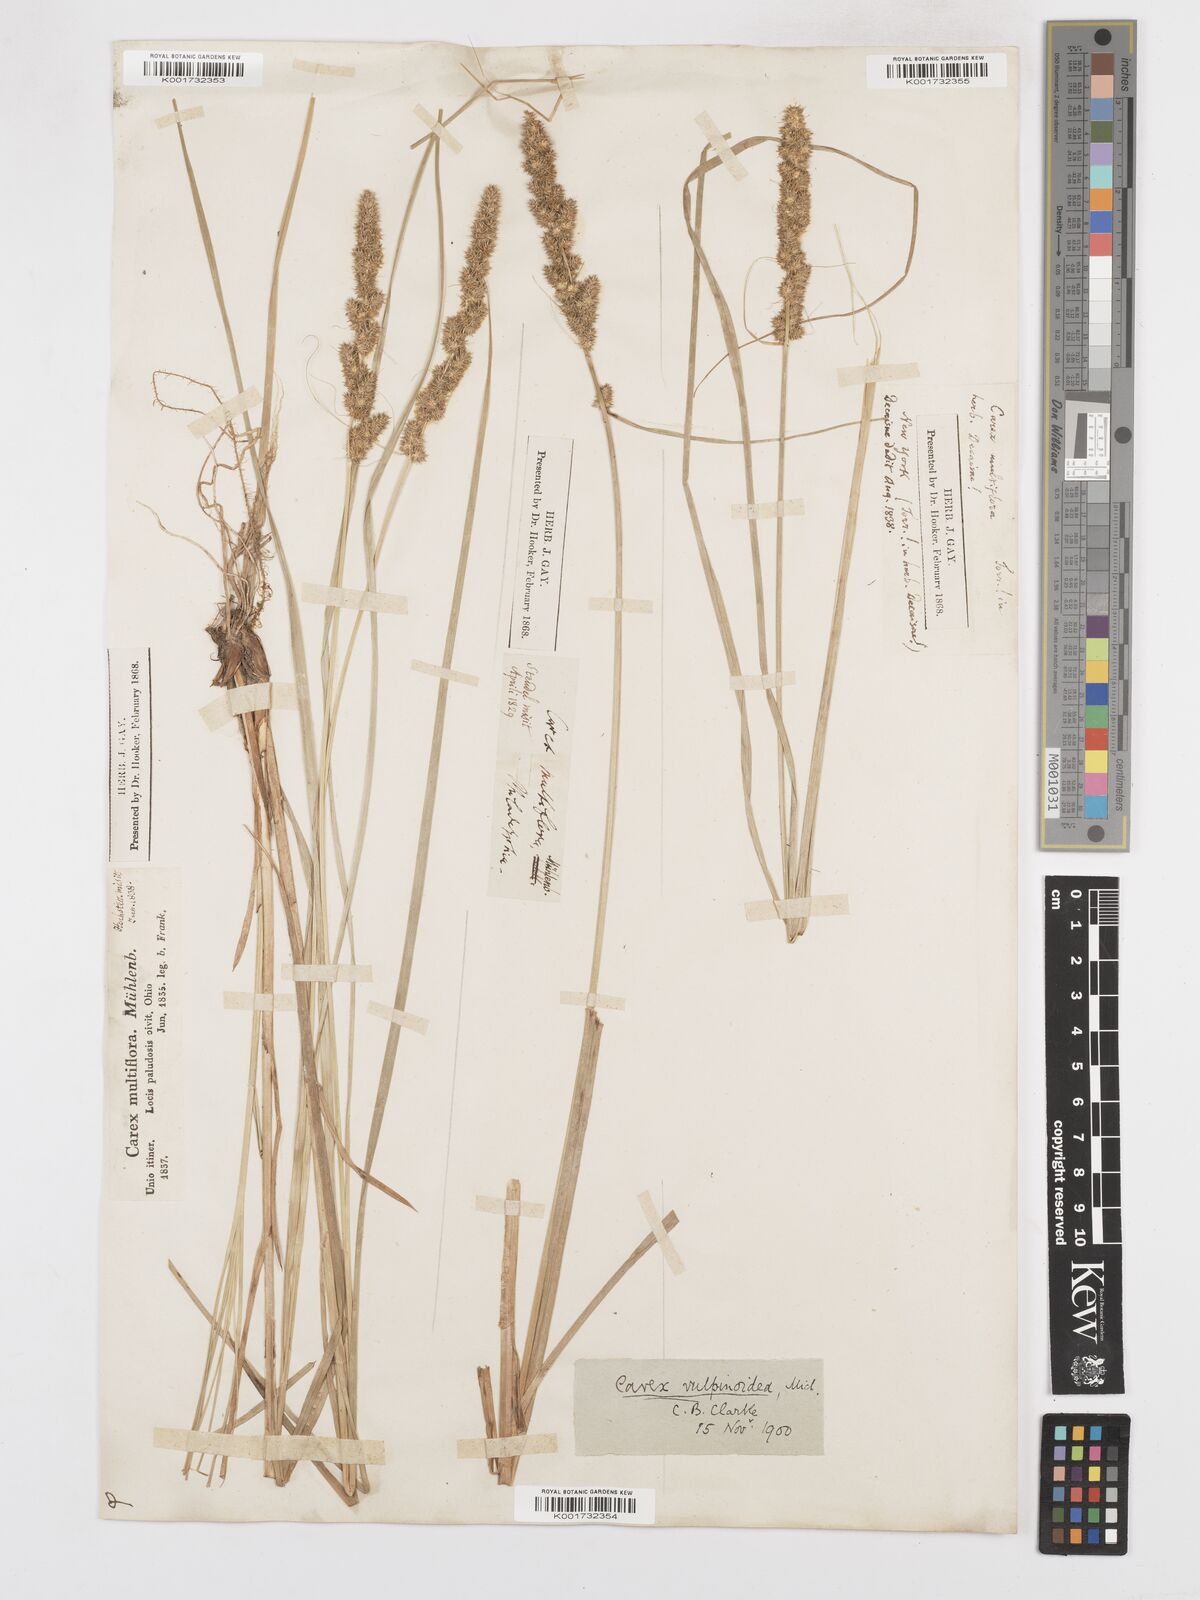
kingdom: Plantae
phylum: Tracheophyta
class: Liliopsida
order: Poales
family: Cyperaceae
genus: Carex
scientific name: Carex vulpinoidea
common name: American fox-sedge
